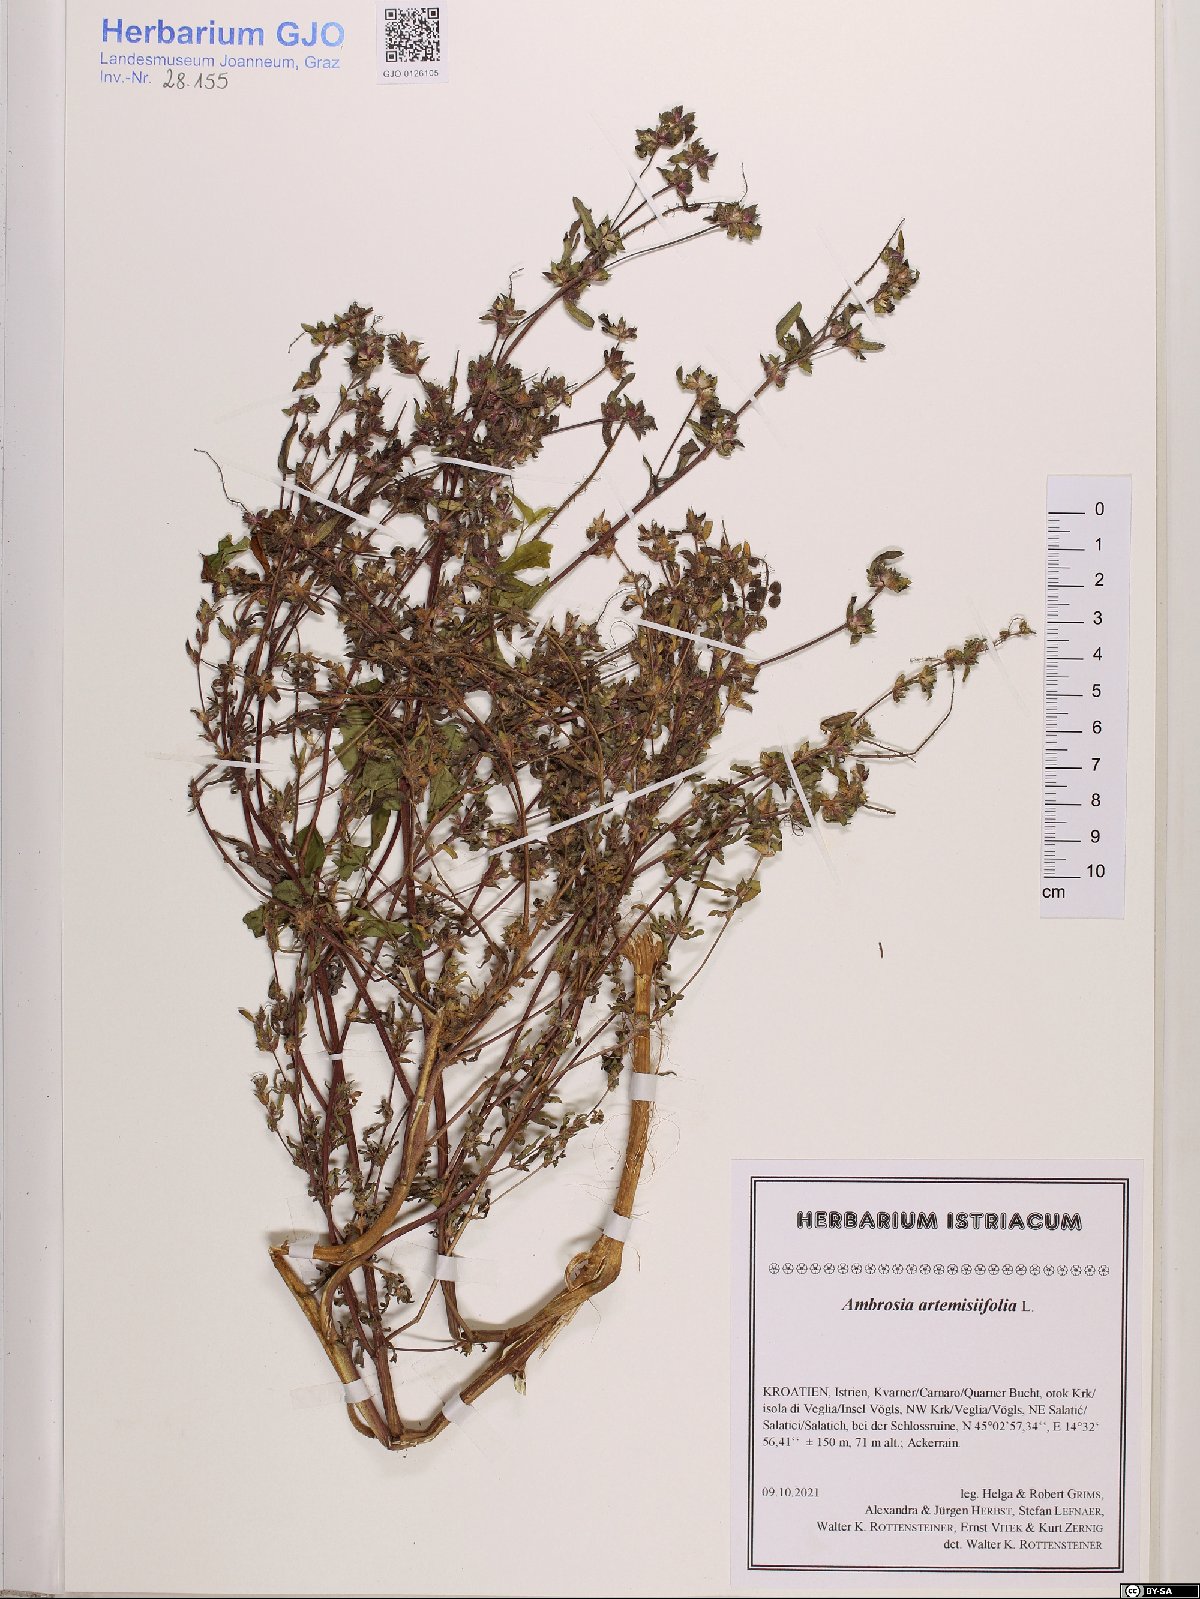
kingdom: Plantae
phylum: Tracheophyta
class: Magnoliopsida
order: Asterales
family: Asteraceae
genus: Ambrosia
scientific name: Ambrosia artemisiifolia
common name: Annual ragweed
